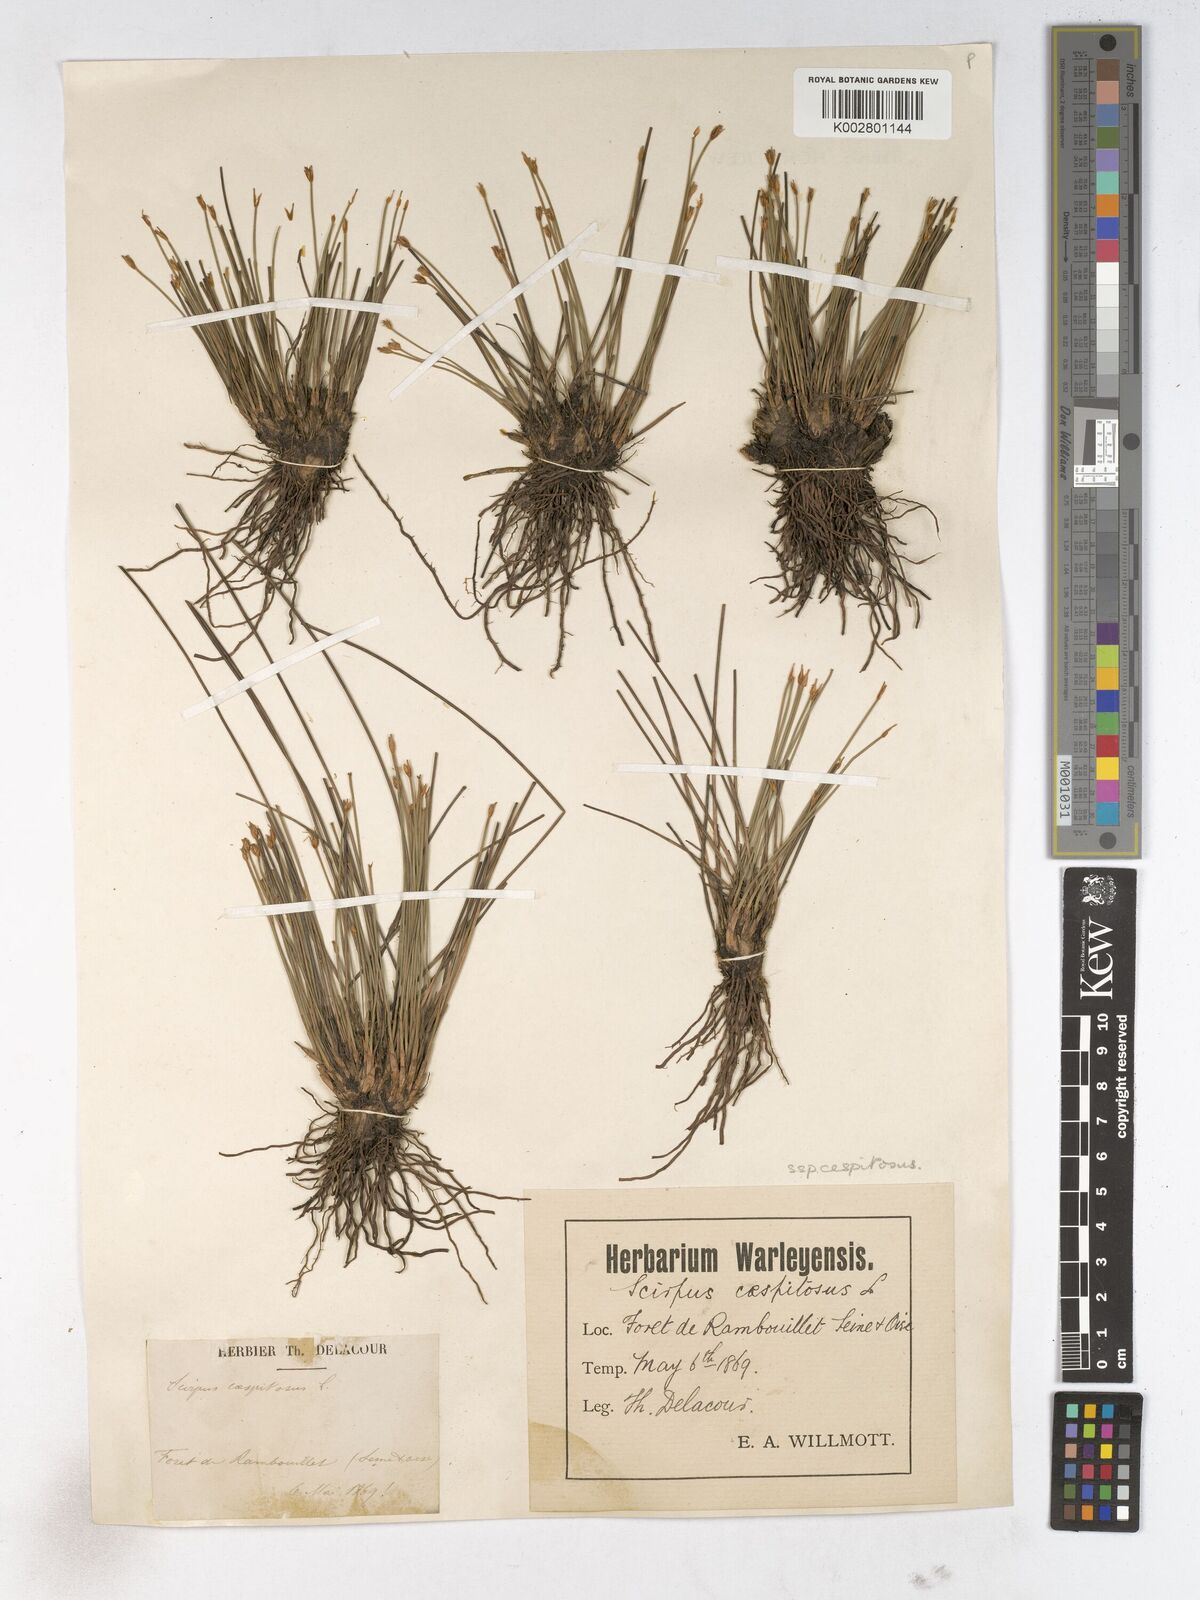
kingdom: Plantae
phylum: Tracheophyta
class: Liliopsida
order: Poales
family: Cyperaceae
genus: Trichophorum
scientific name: Trichophorum cespitosum
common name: Cespitose bulrush
